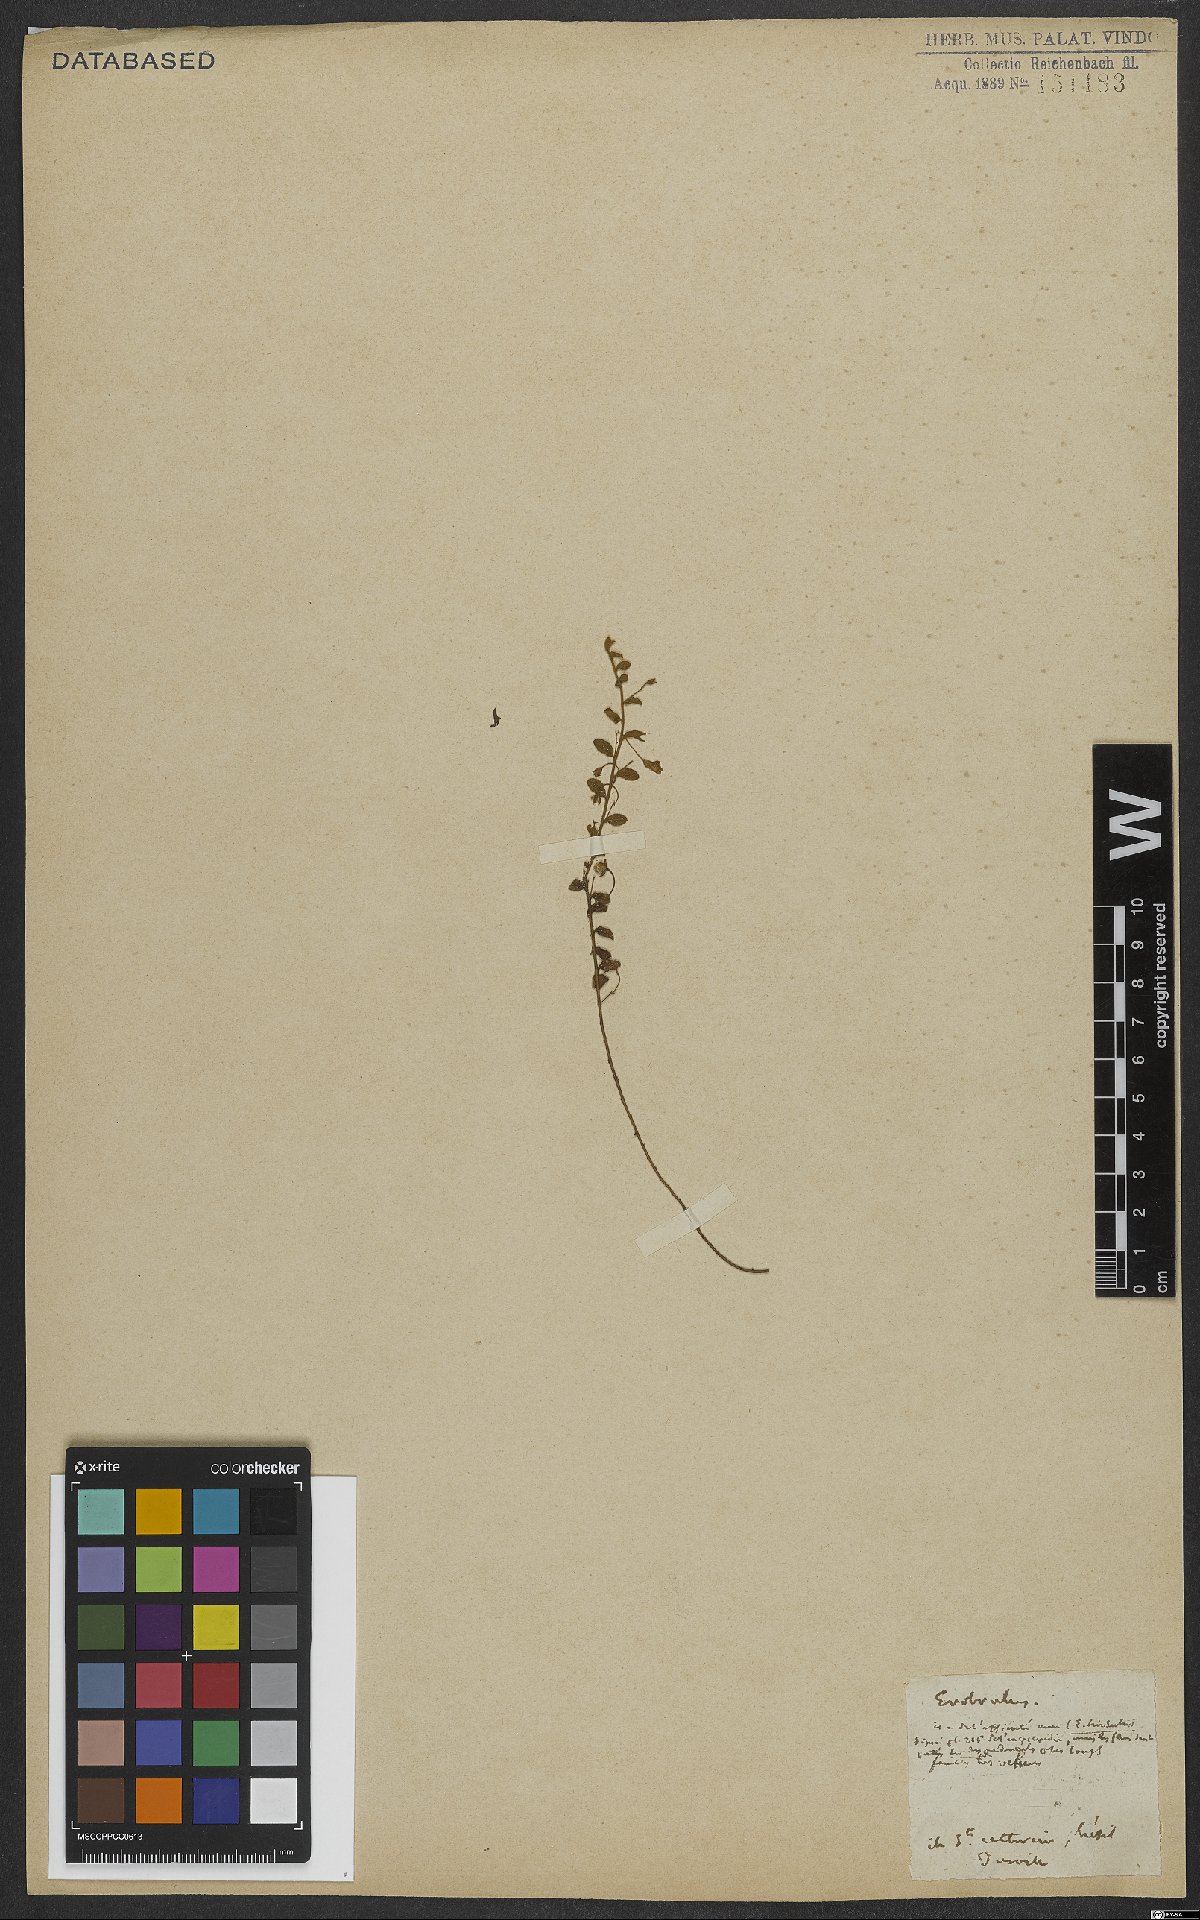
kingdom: Plantae
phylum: Tracheophyta
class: Magnoliopsida
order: Solanales
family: Convolvulaceae
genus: Evolvulus
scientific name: Evolvulus pusillus
